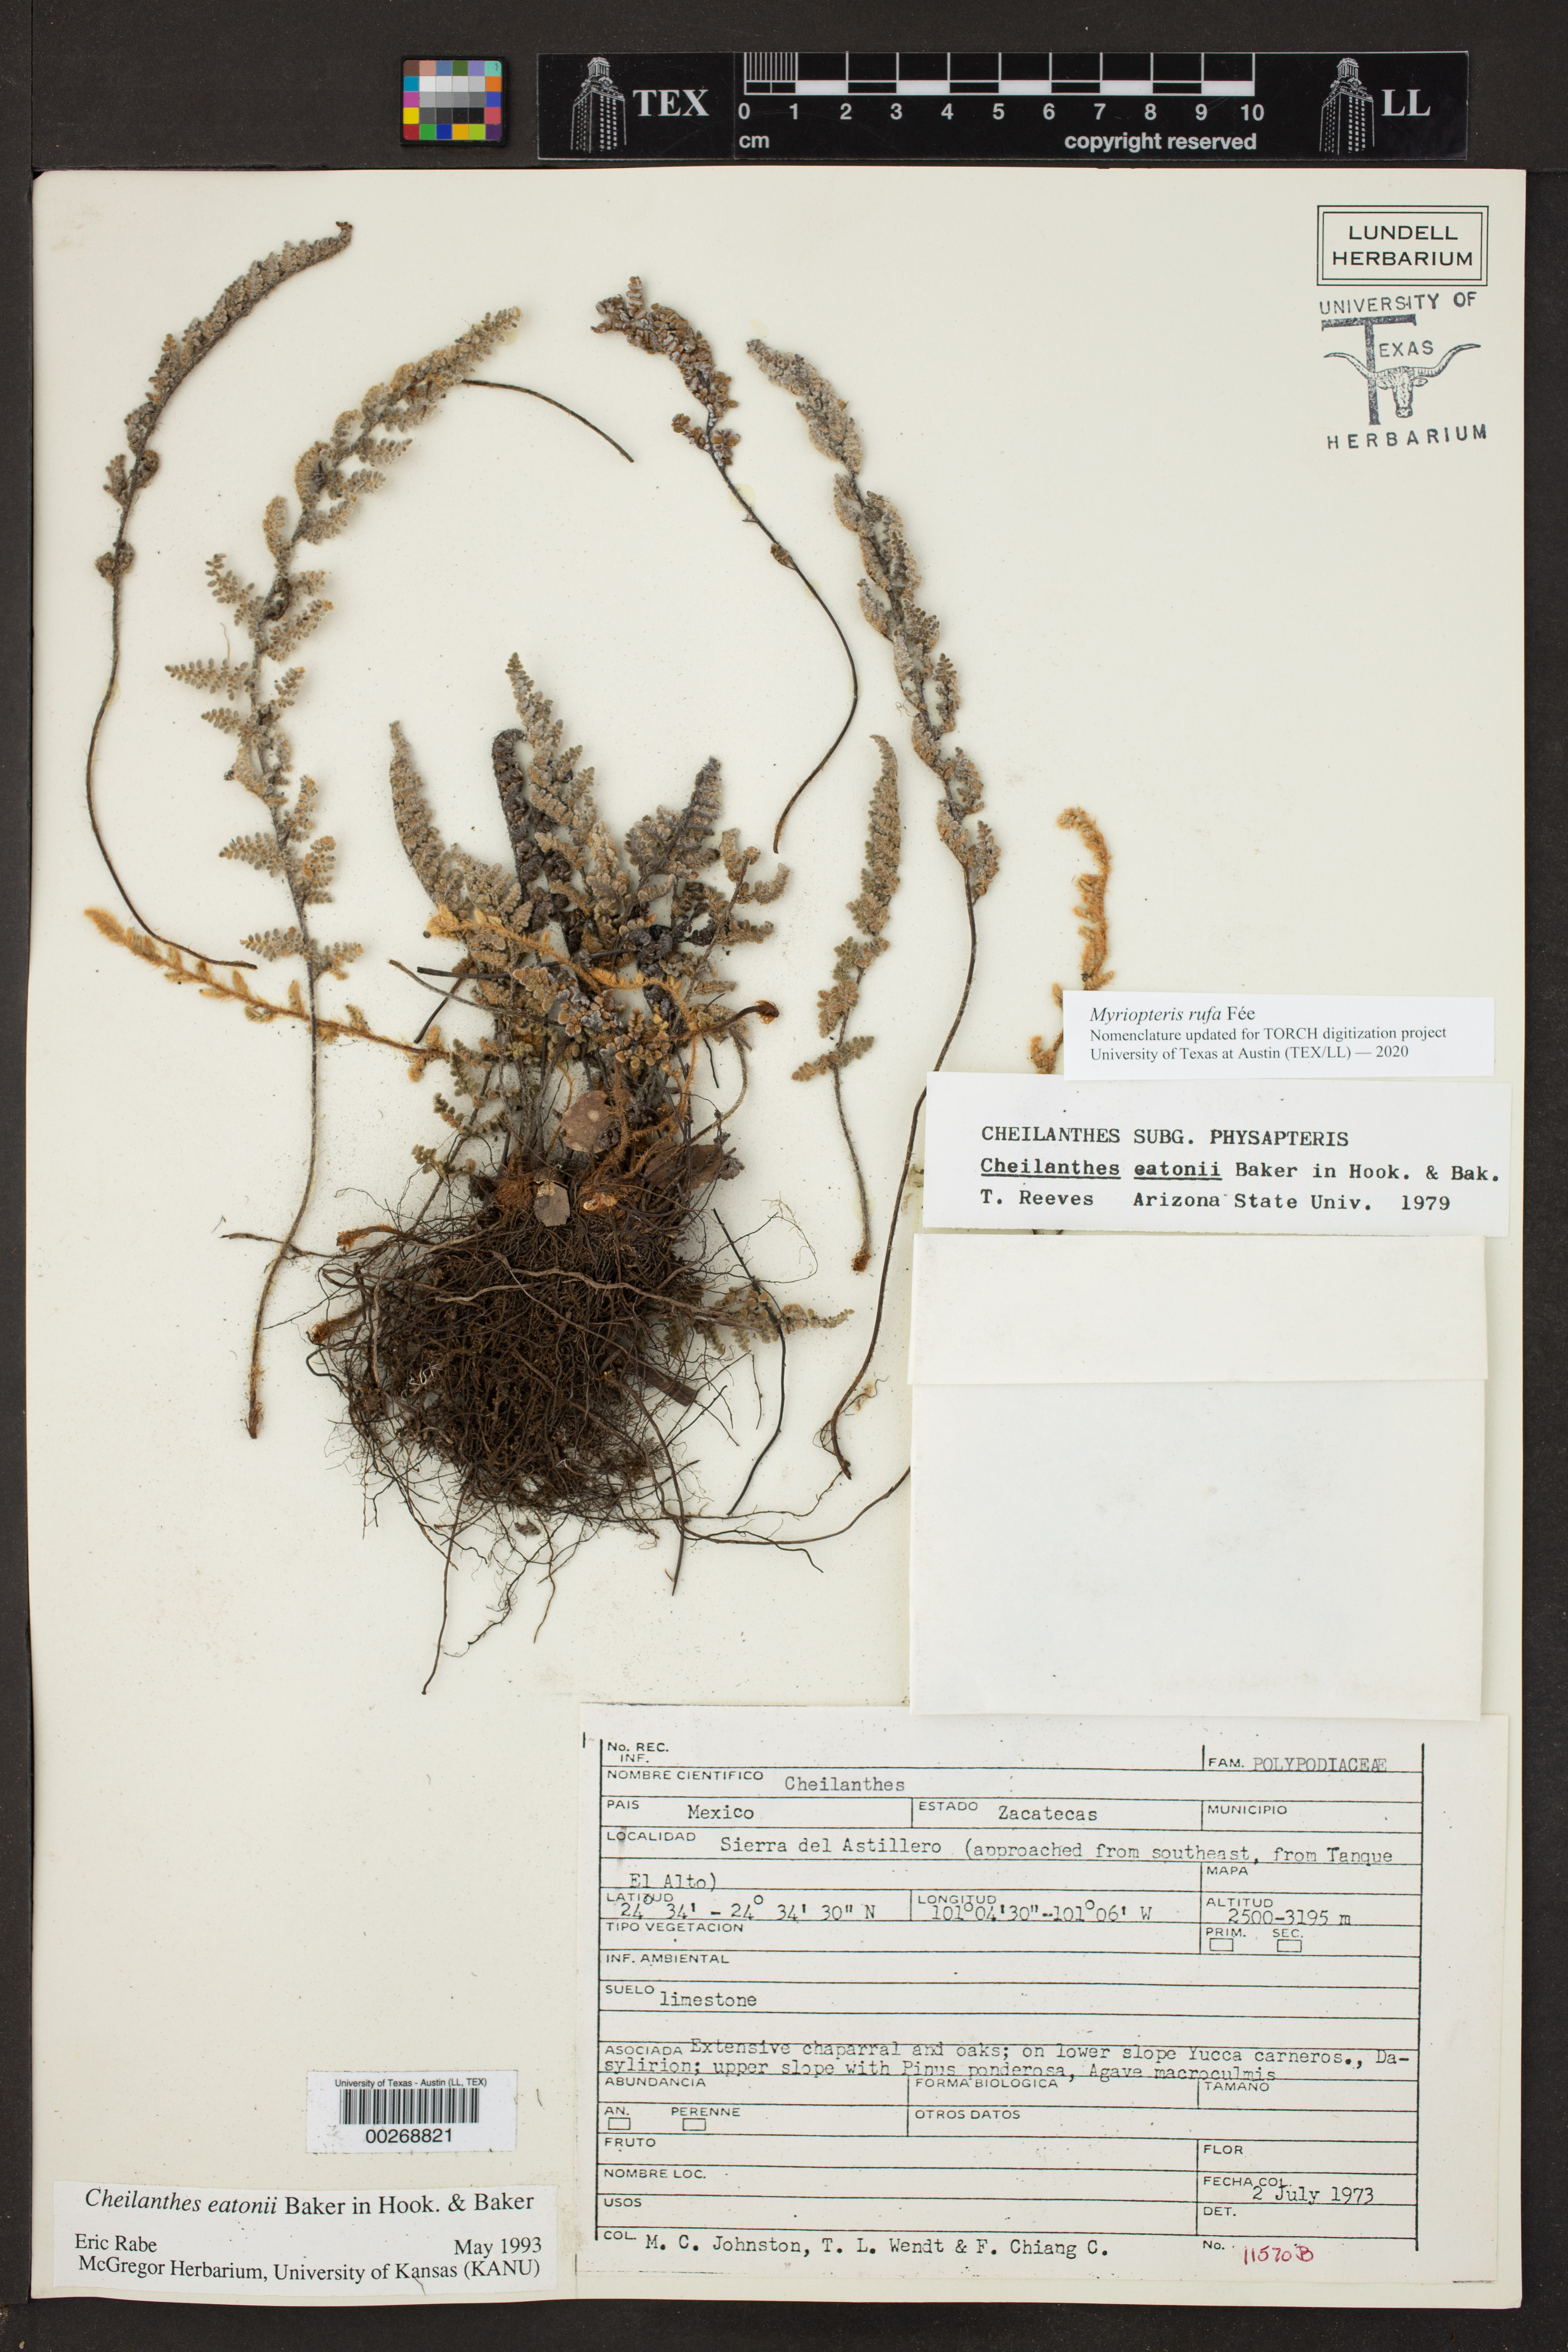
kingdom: Plantae
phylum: Tracheophyta
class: Polypodiopsida
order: Polypodiales
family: Pteridaceae
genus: Myriopteris
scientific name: Myriopteris rufa
